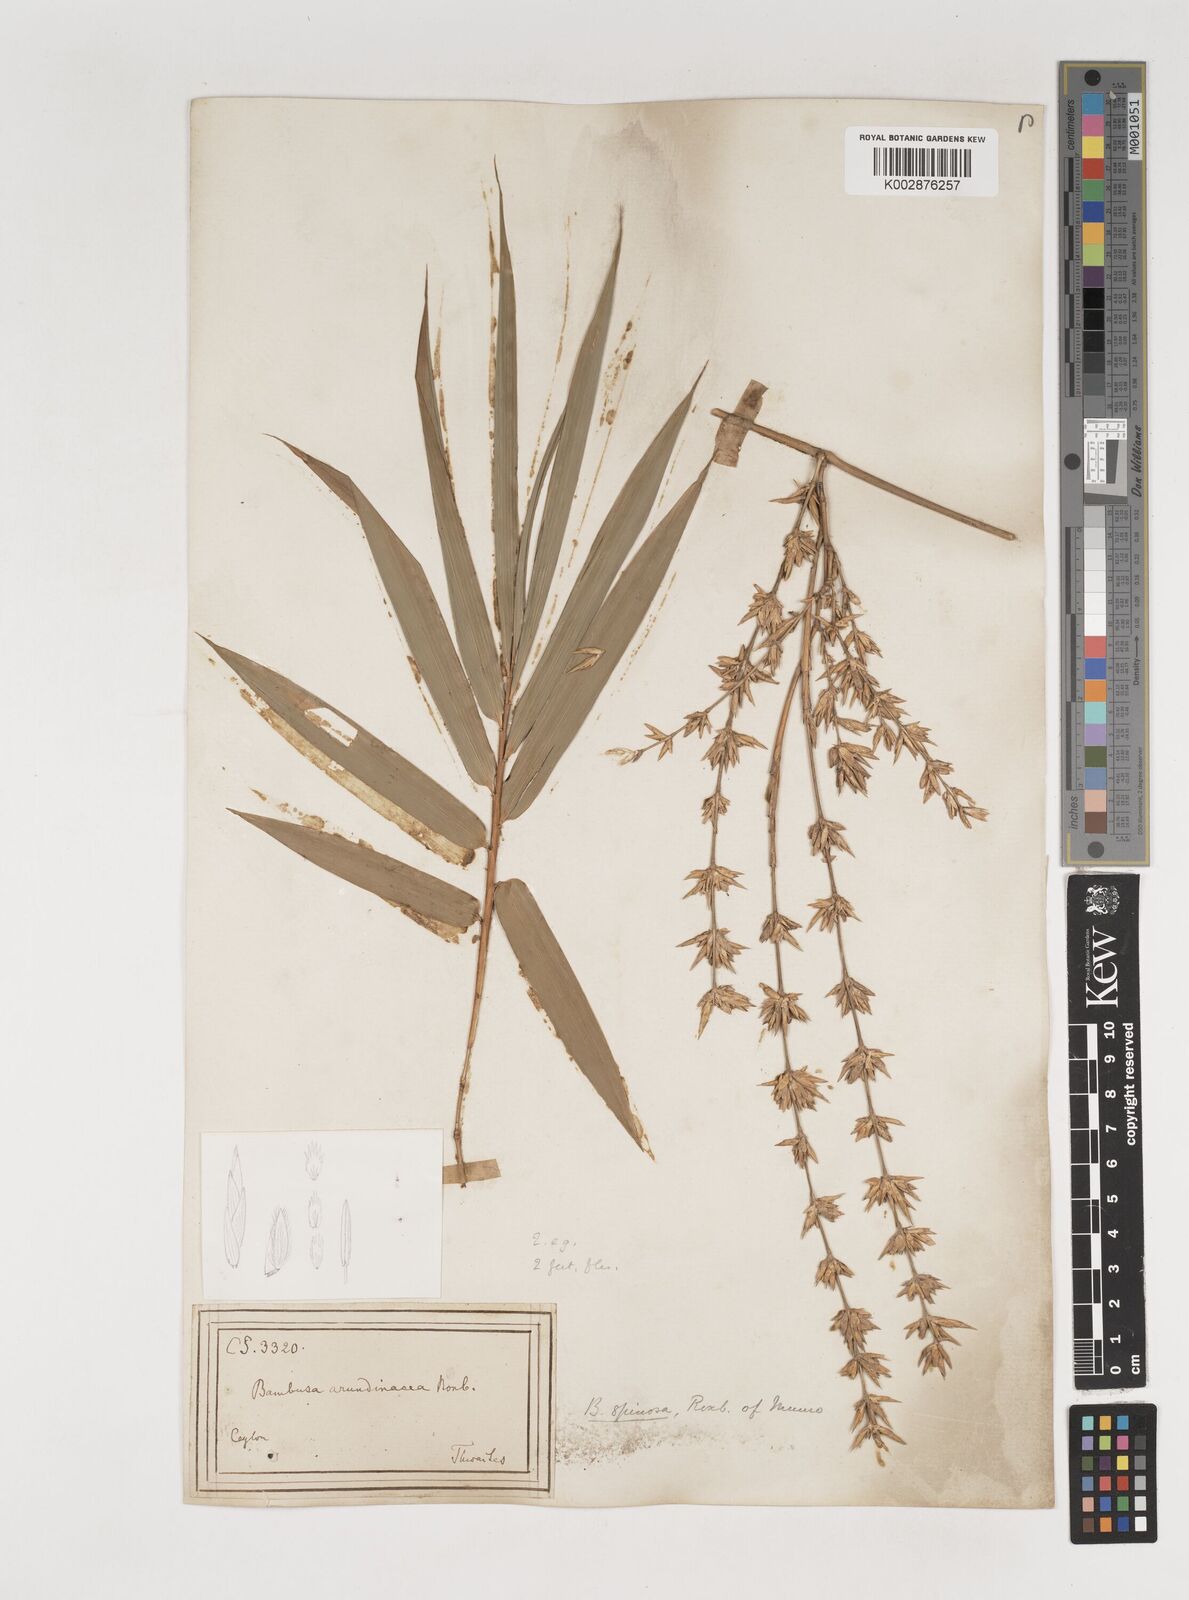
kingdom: Plantae
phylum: Tracheophyta
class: Liliopsida
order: Poales
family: Poaceae
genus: Bambusa
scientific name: Bambusa bambos
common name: Indian thorny bamboo
